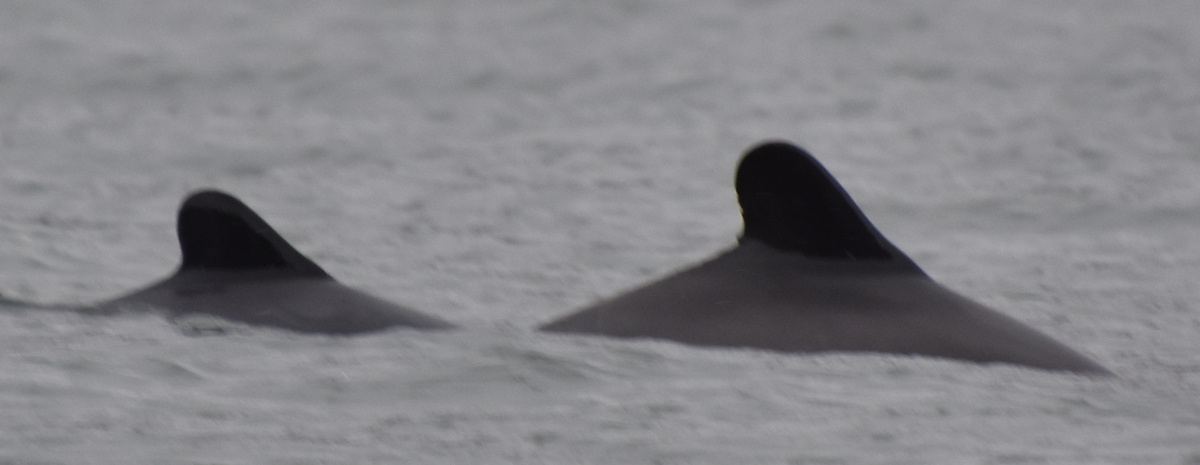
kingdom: Animalia
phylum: Chordata
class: Mammalia
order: Cetacea
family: Delphinidae
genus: Cephalorhynchus
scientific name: Cephalorhynchus eutropia
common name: Black dolphin
